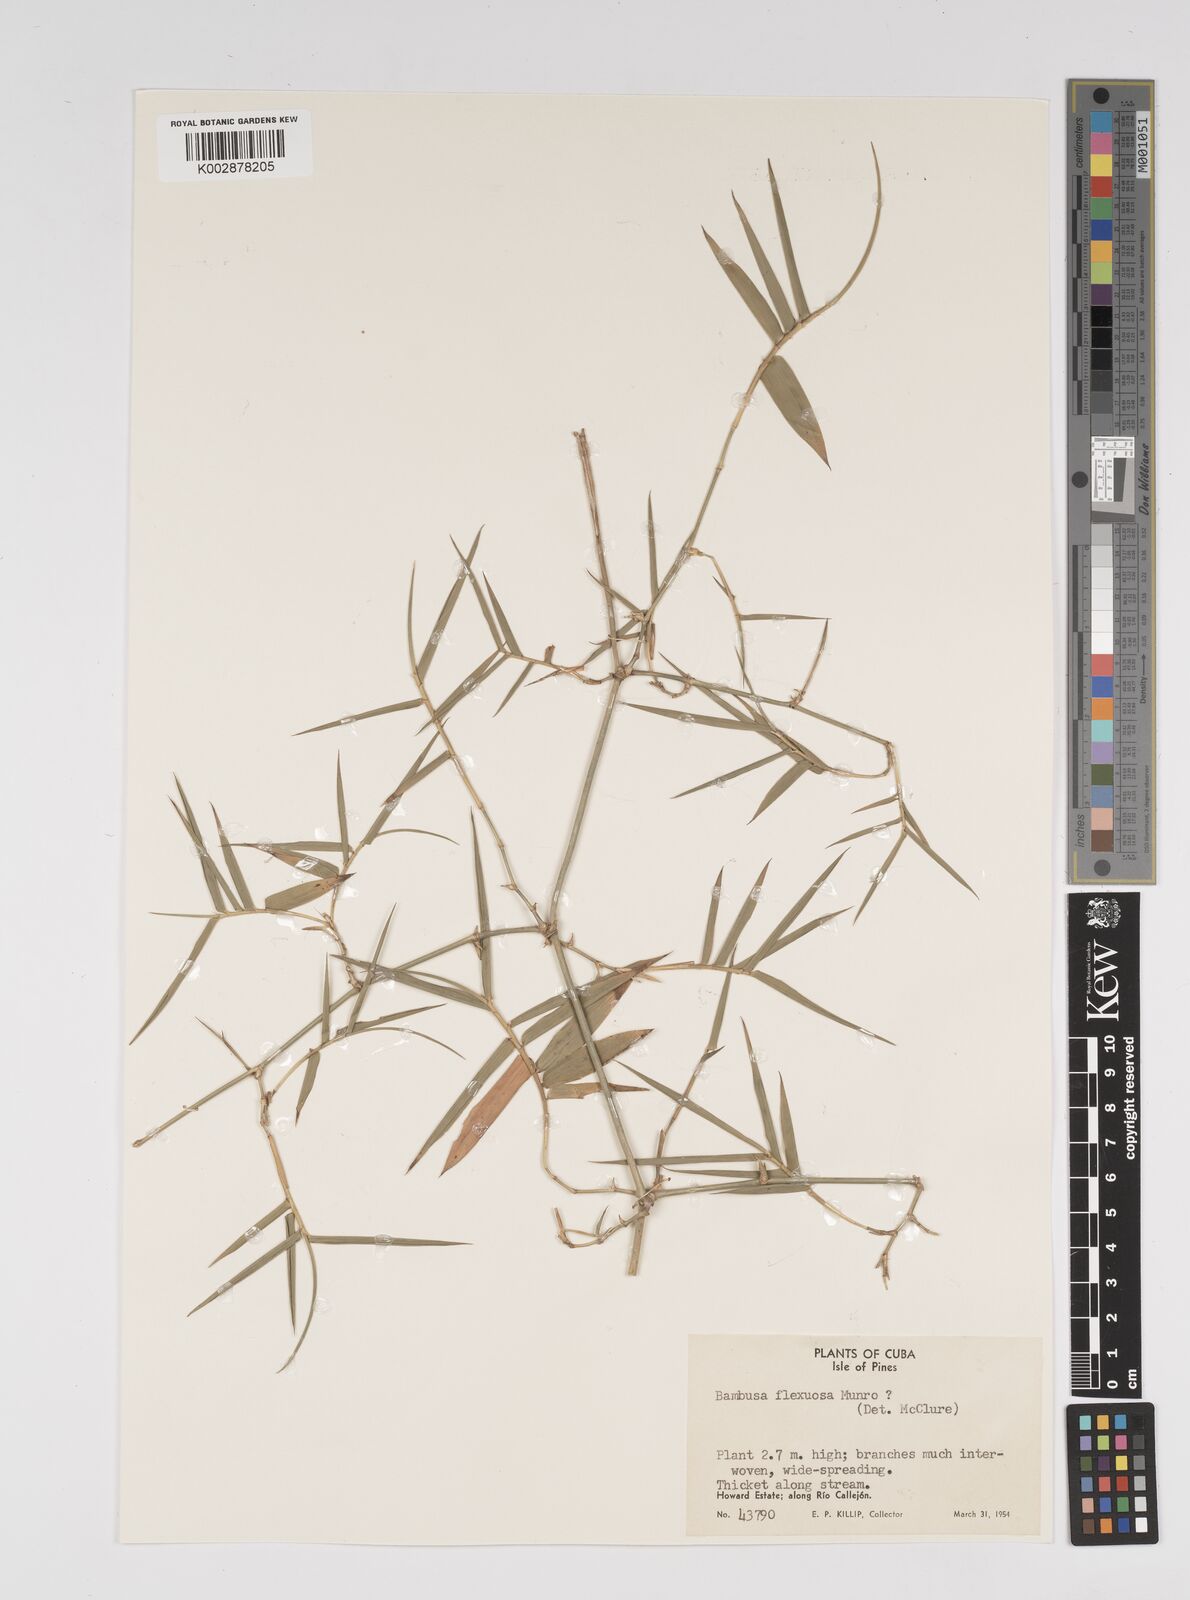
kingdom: Plantae
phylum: Tracheophyta
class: Liliopsida
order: Poales
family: Poaceae
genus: Bambusa
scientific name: Bambusa flexuosa
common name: Lesser thorny bamboo
